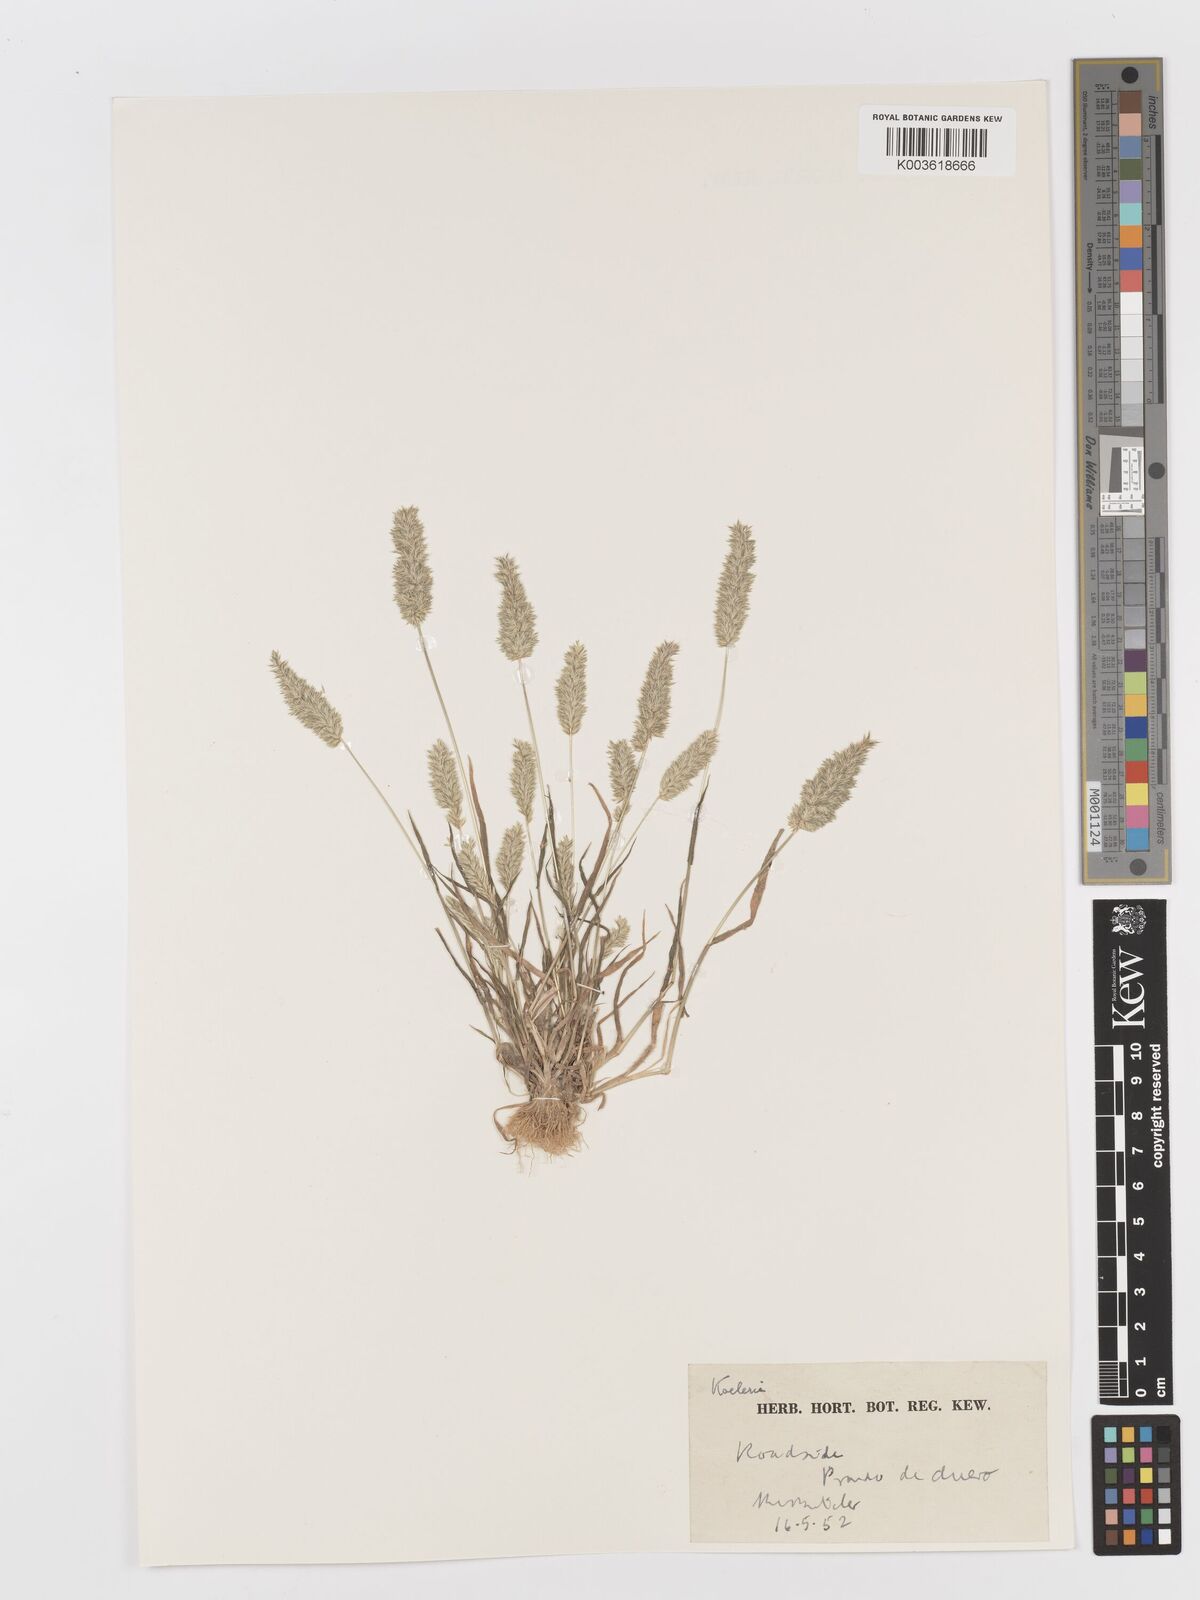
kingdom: Plantae
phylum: Tracheophyta
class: Liliopsida
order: Poales
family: Poaceae
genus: Rostraria
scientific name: Rostraria
